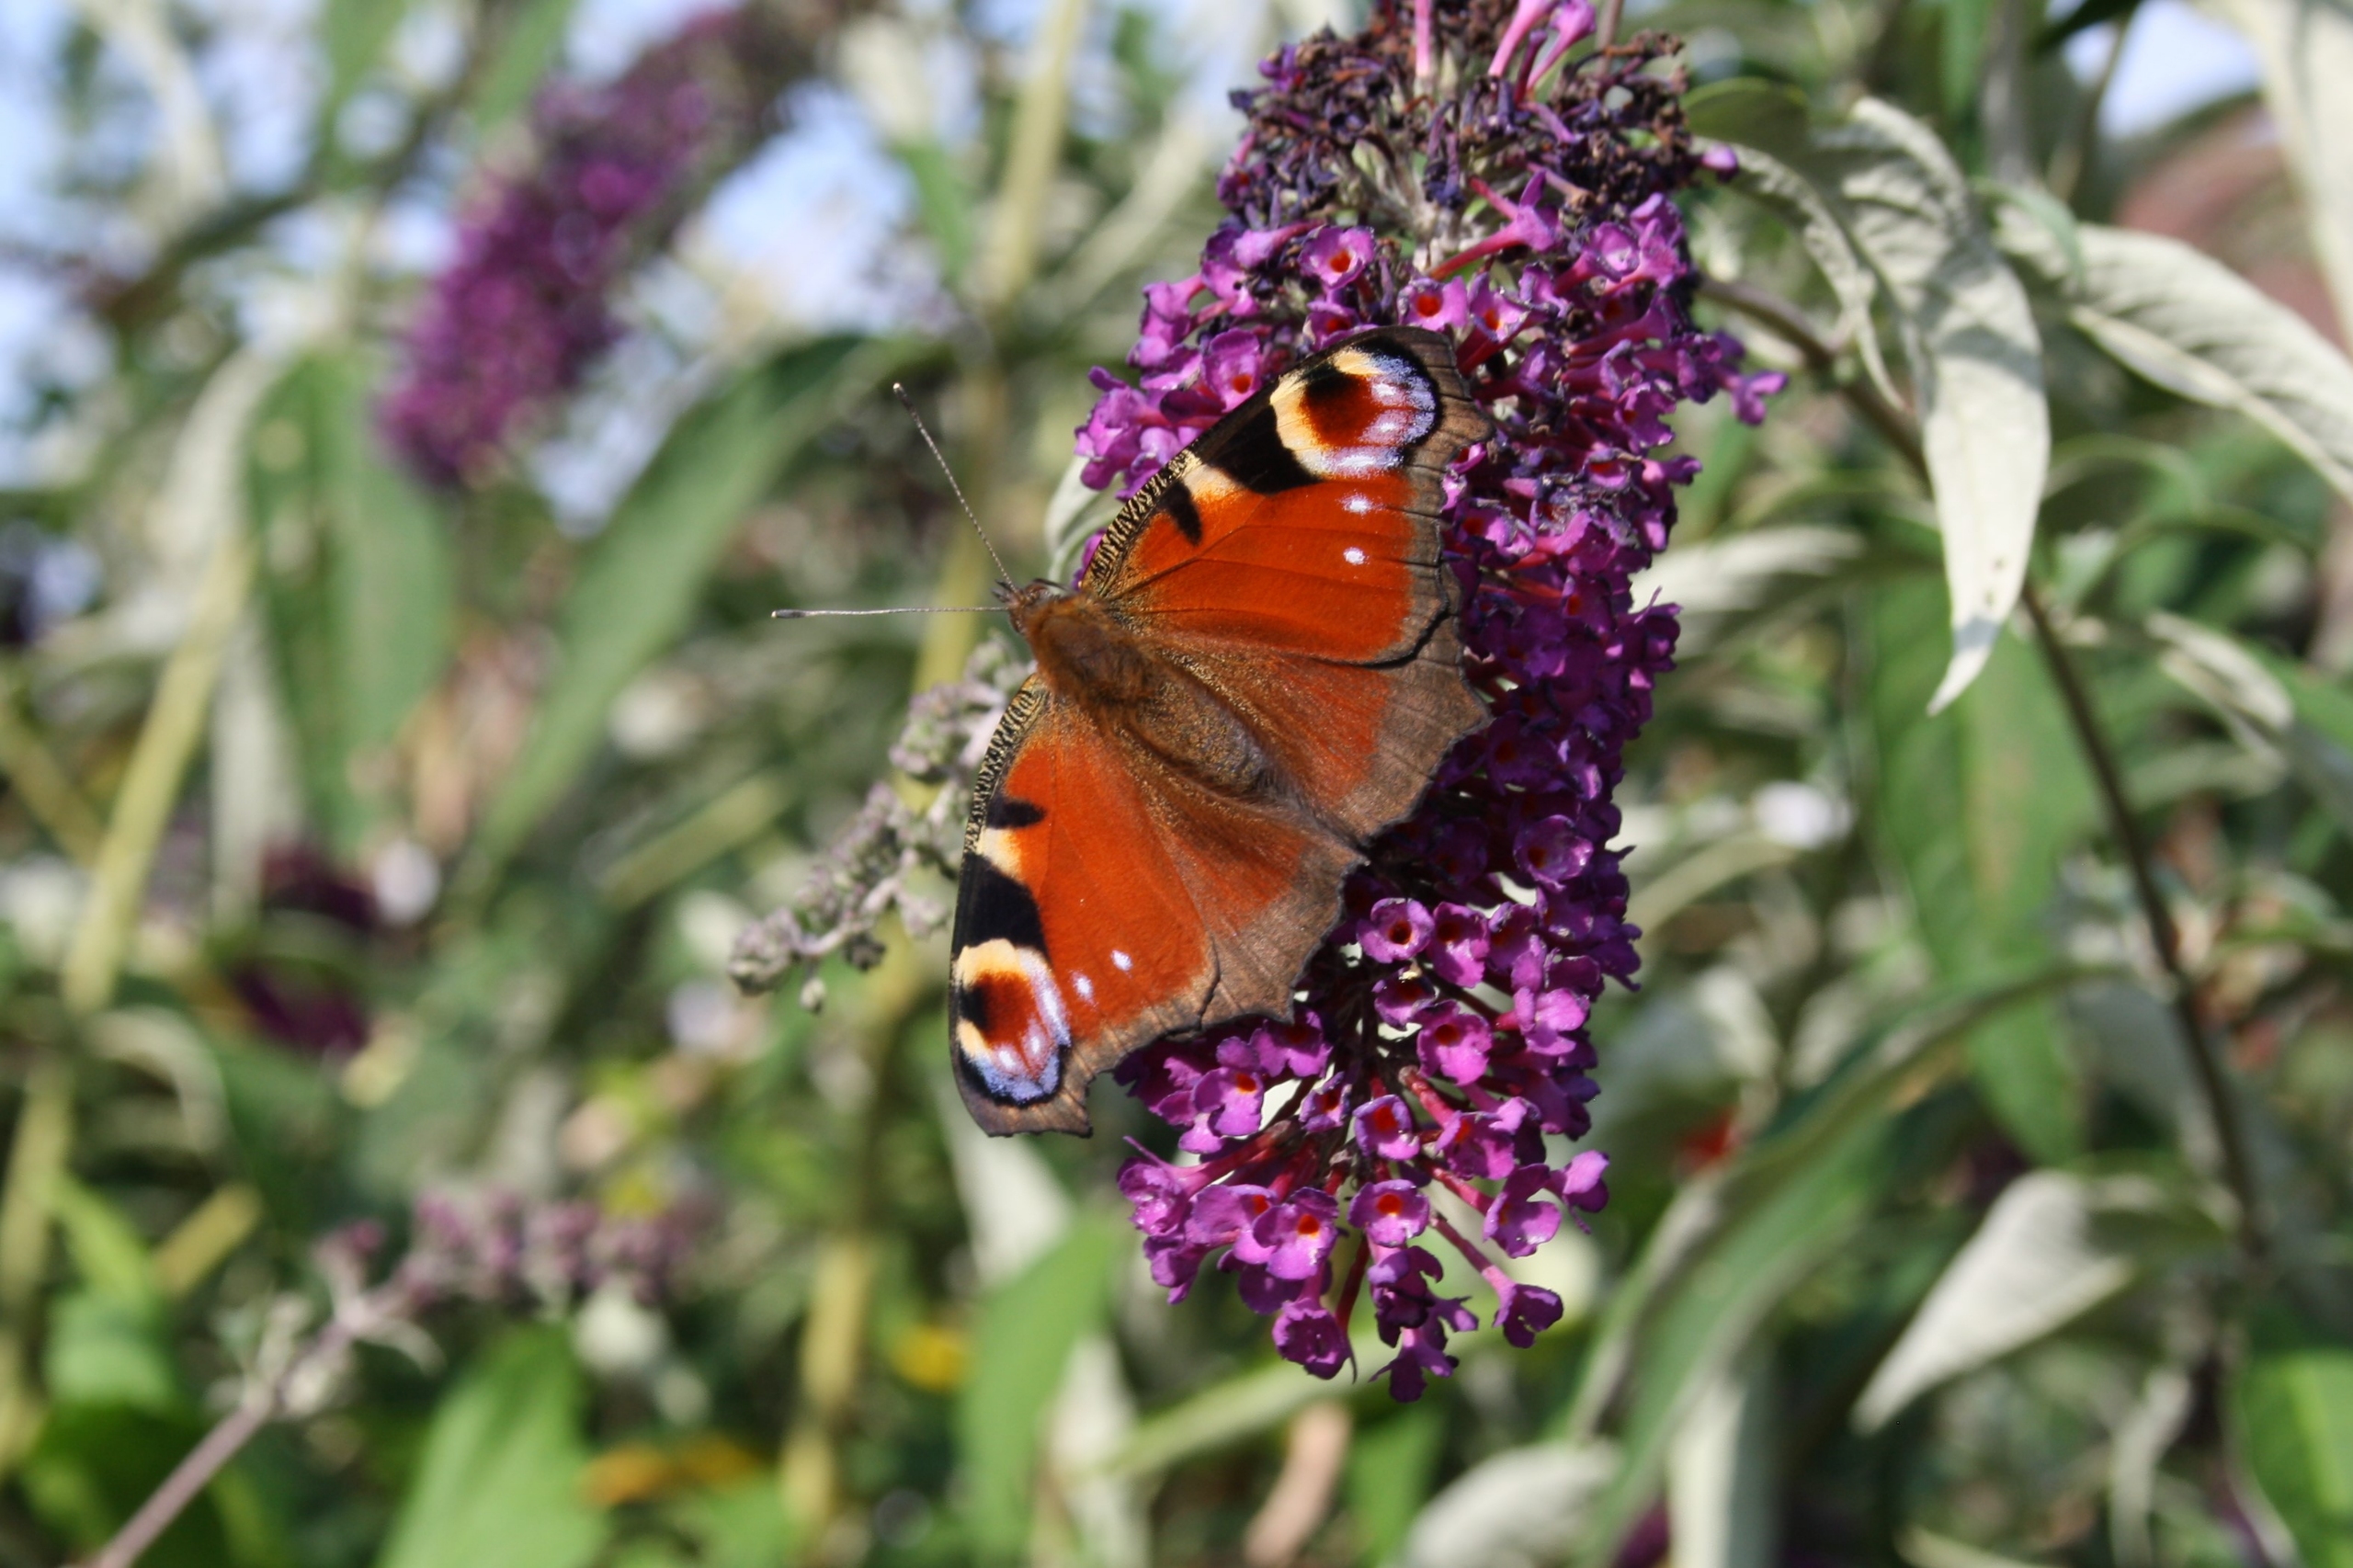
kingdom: Animalia
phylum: Arthropoda
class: Insecta
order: Lepidoptera
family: Nymphalidae
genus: Aglais
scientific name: Aglais io
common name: Dagpåfugleøje
